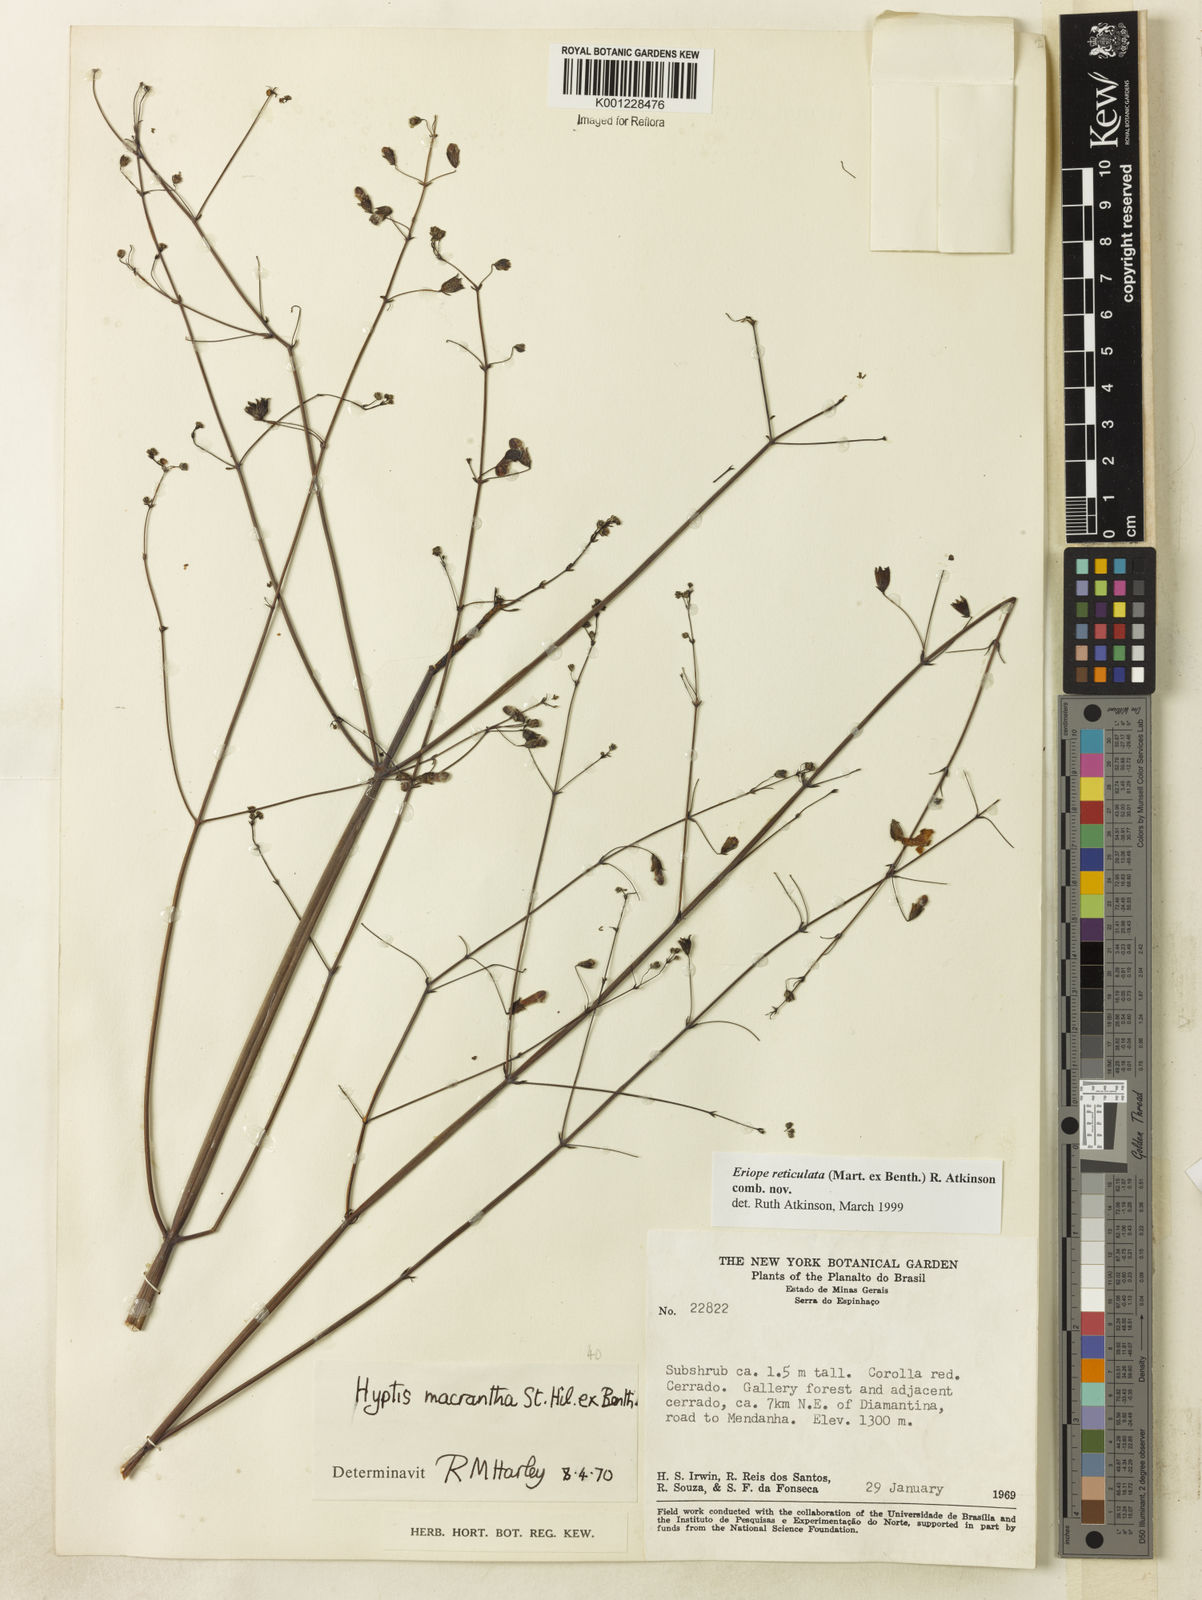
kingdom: Plantae
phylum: Tracheophyta
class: Magnoliopsida
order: Lamiales
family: Lamiaceae
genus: Hypenia
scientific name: Hypenia reticulata
